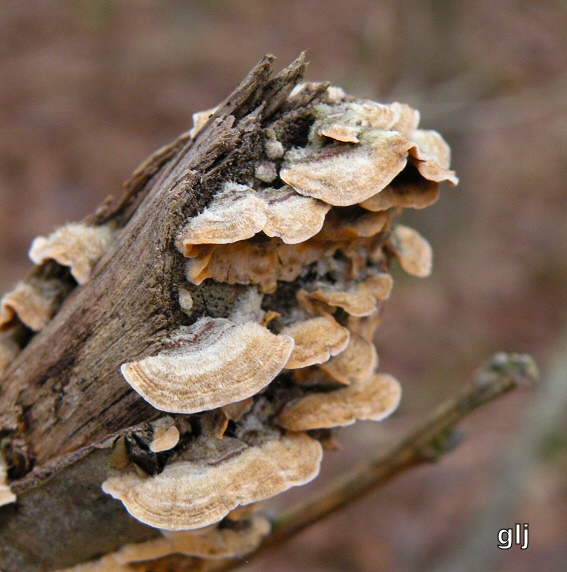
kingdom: Fungi
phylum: Basidiomycota
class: Agaricomycetes
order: Russulales
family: Stereaceae
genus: Stereum
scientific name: Stereum hirsutum
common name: håret lædersvamp
